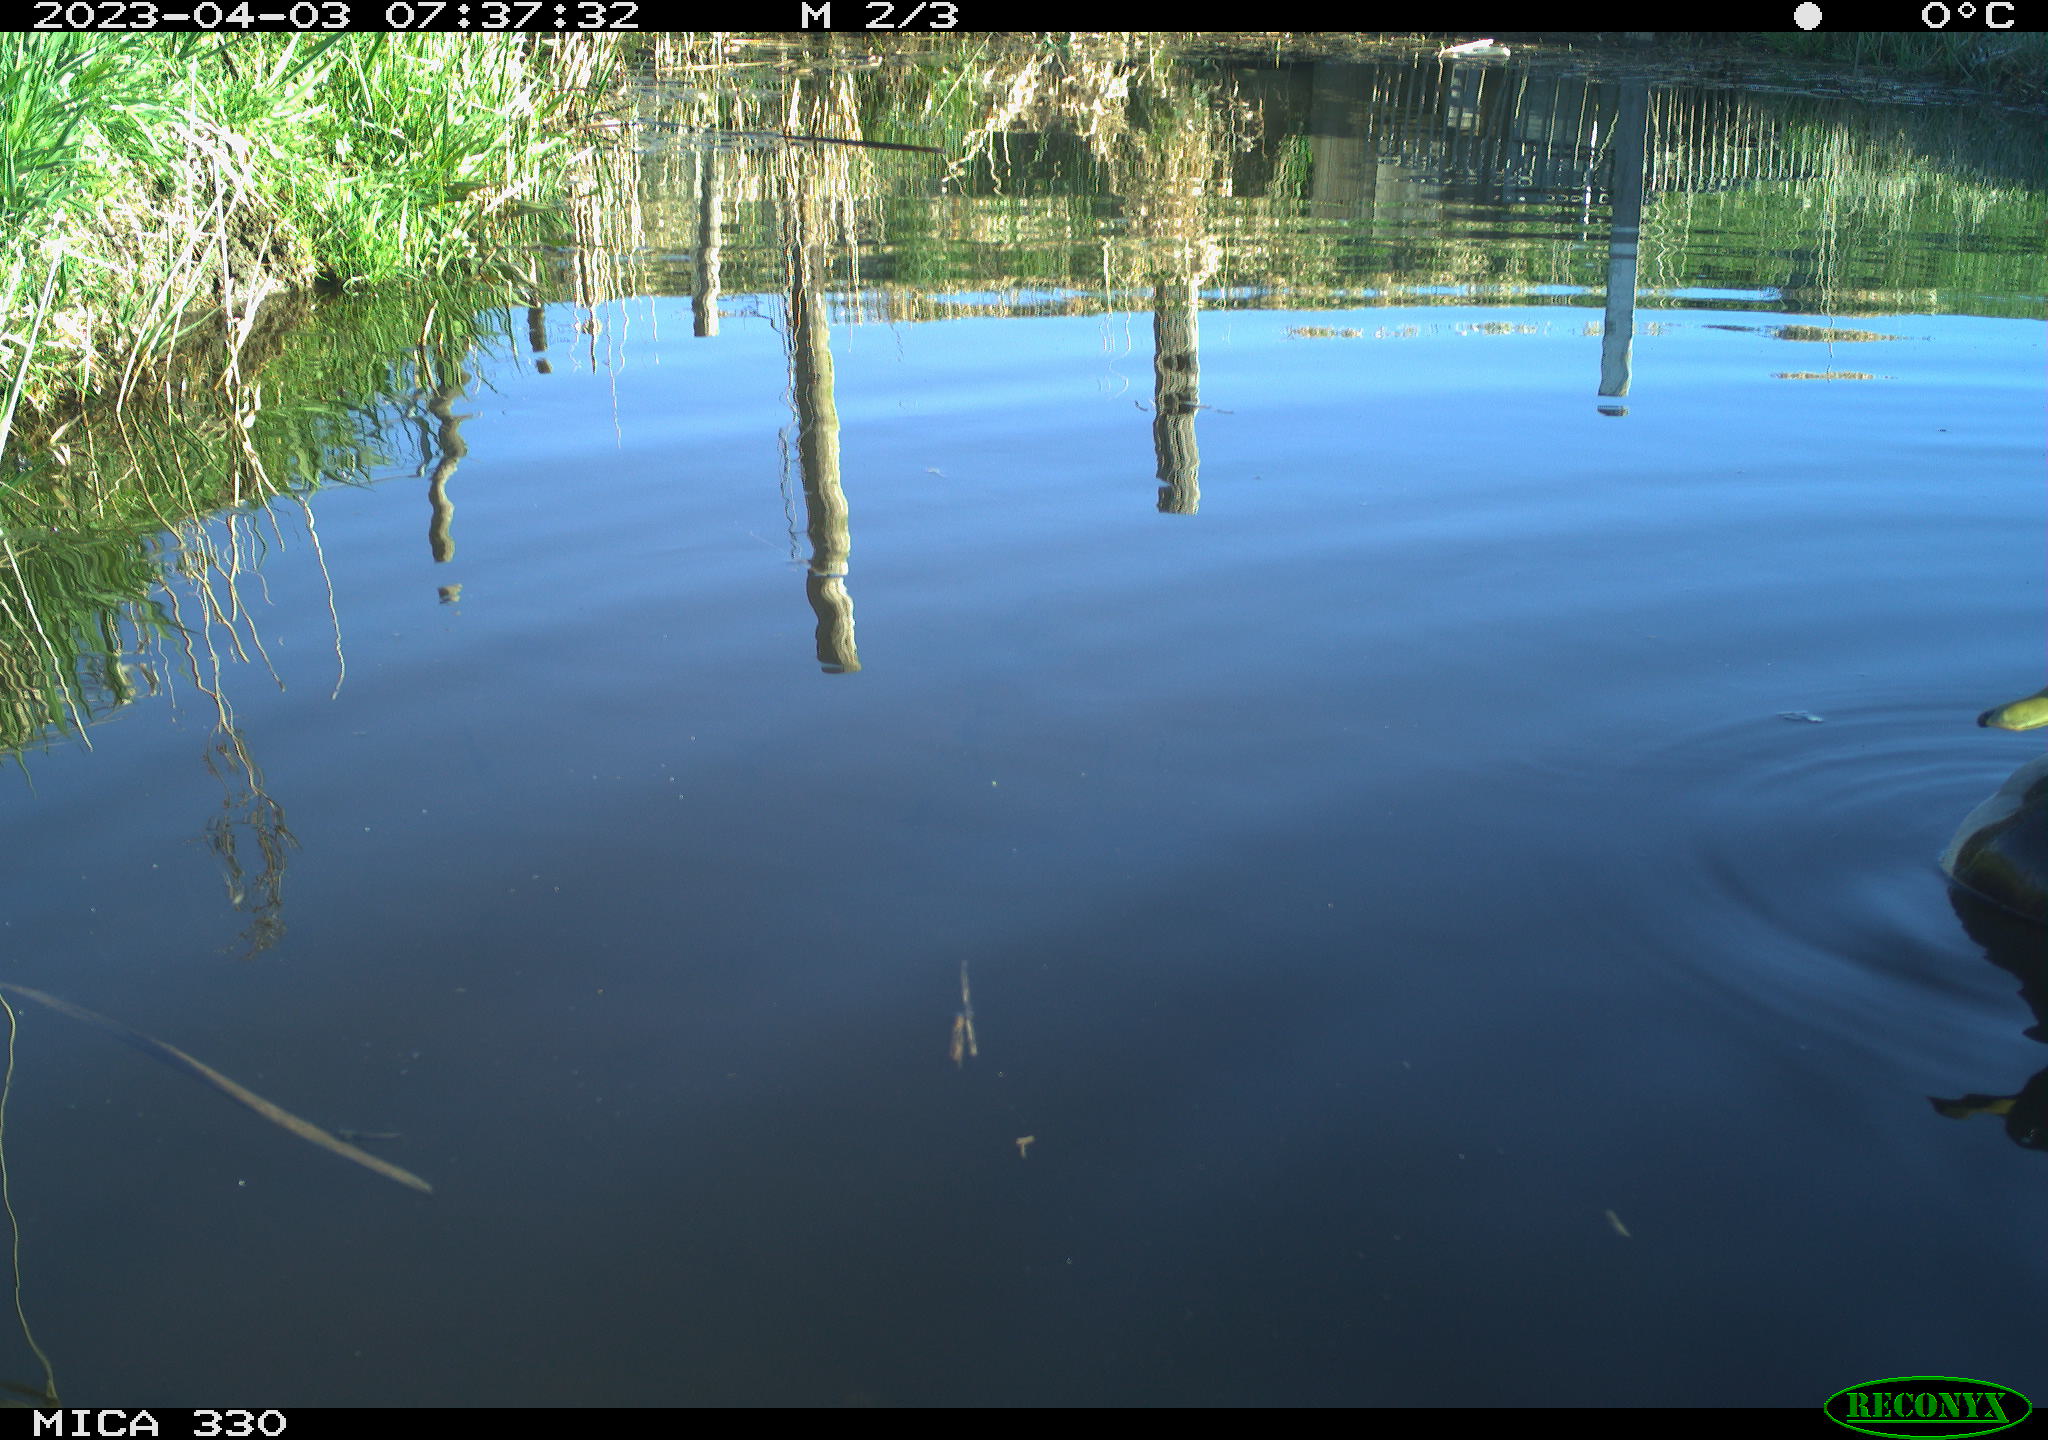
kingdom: Animalia
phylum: Chordata
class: Aves
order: Anseriformes
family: Anatidae
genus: Anas
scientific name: Anas
